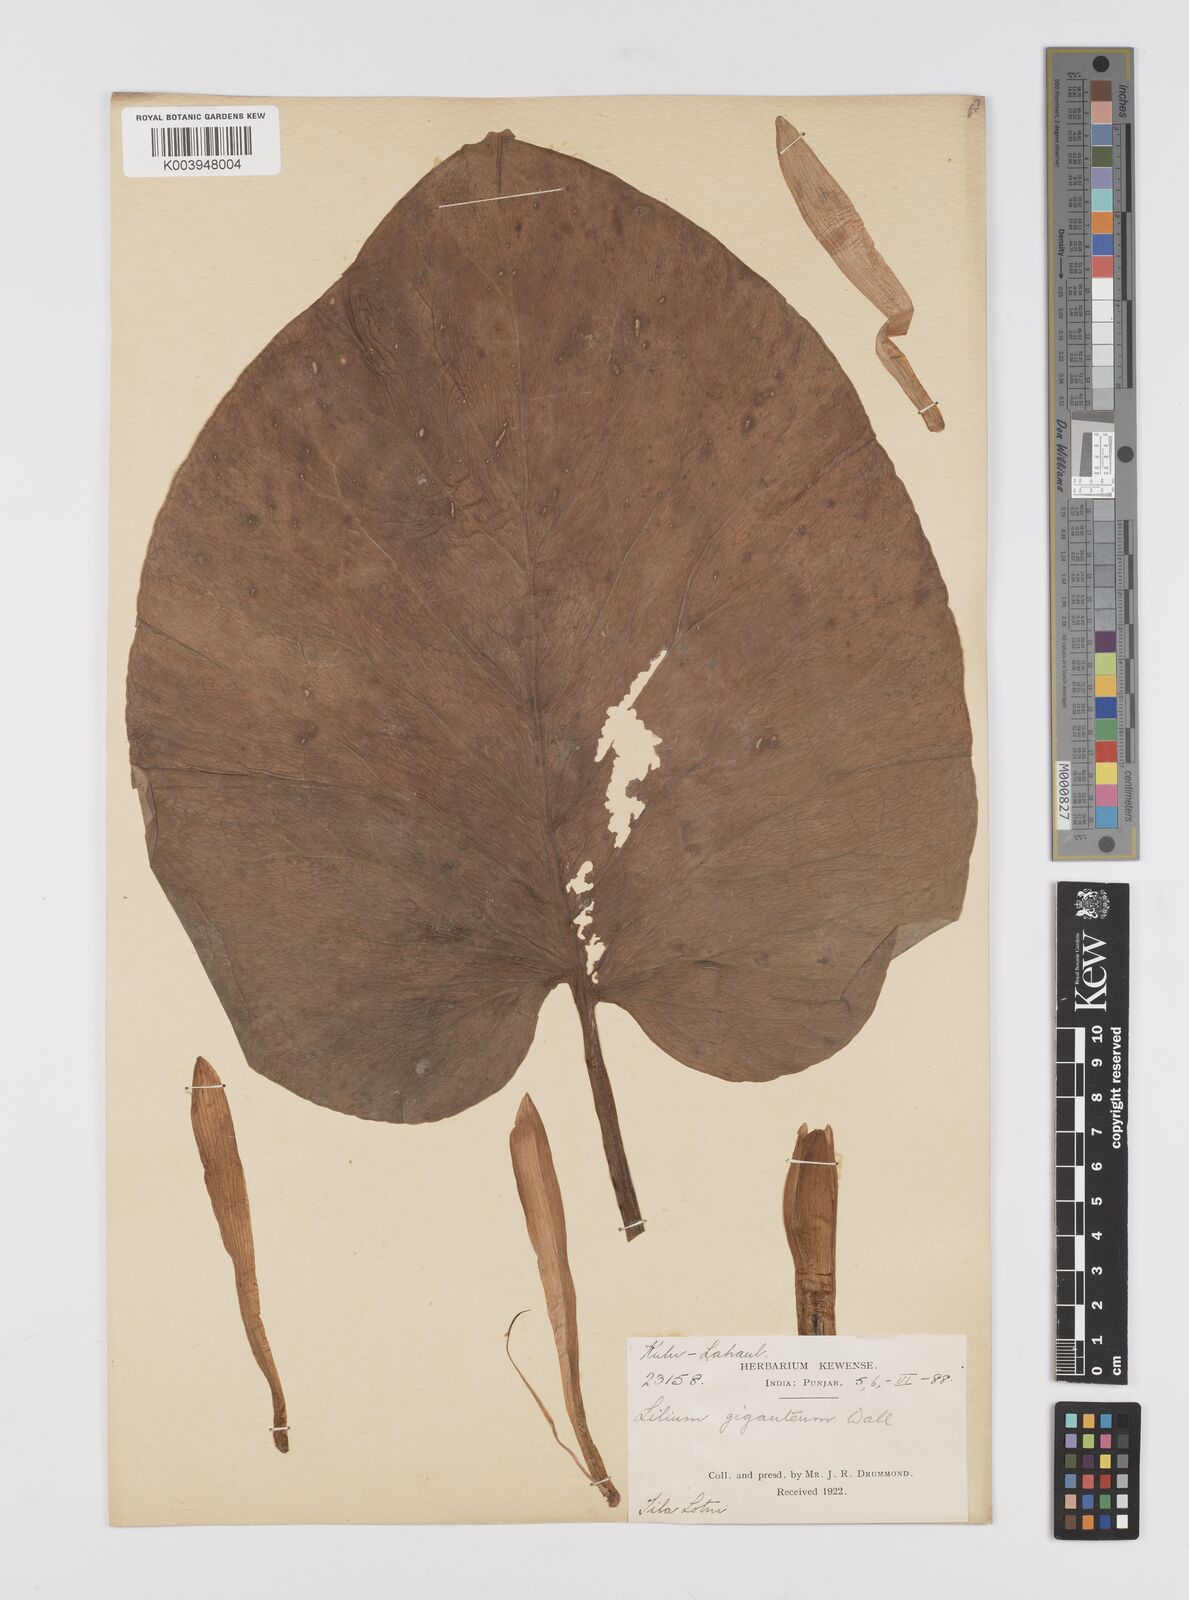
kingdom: Plantae
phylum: Tracheophyta
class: Liliopsida
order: Liliales
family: Liliaceae
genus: Cardiocrinum
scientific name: Cardiocrinum giganteum
